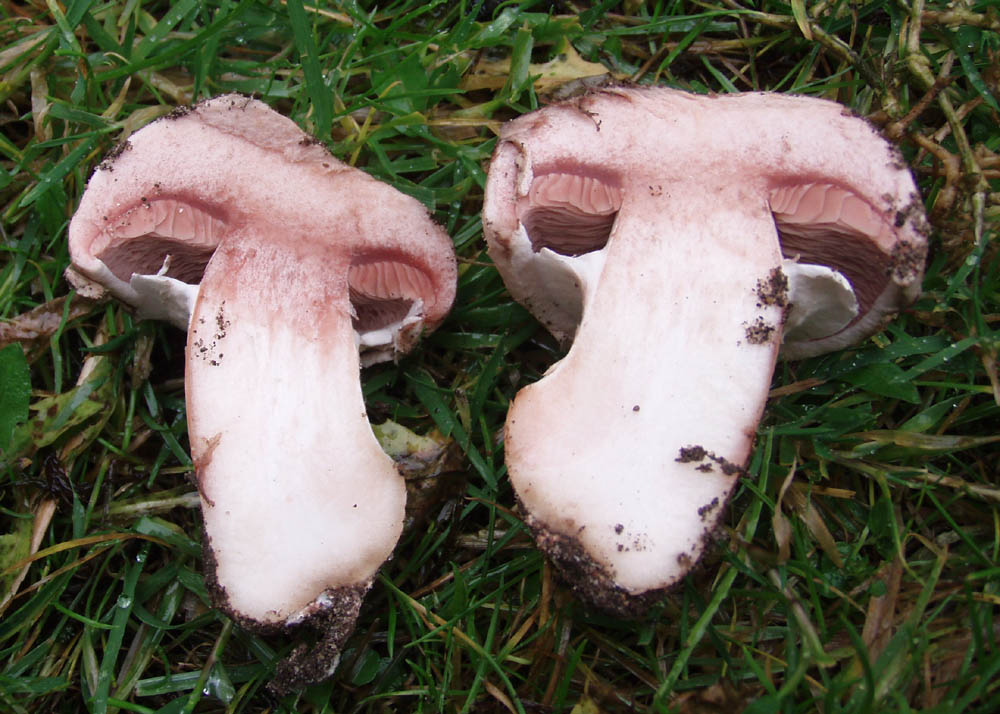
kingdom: Fungi
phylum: Basidiomycota
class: Agaricomycetes
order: Agaricales
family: Agaricaceae
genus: Agaricus
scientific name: Agaricus bisporus
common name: have-champignon
